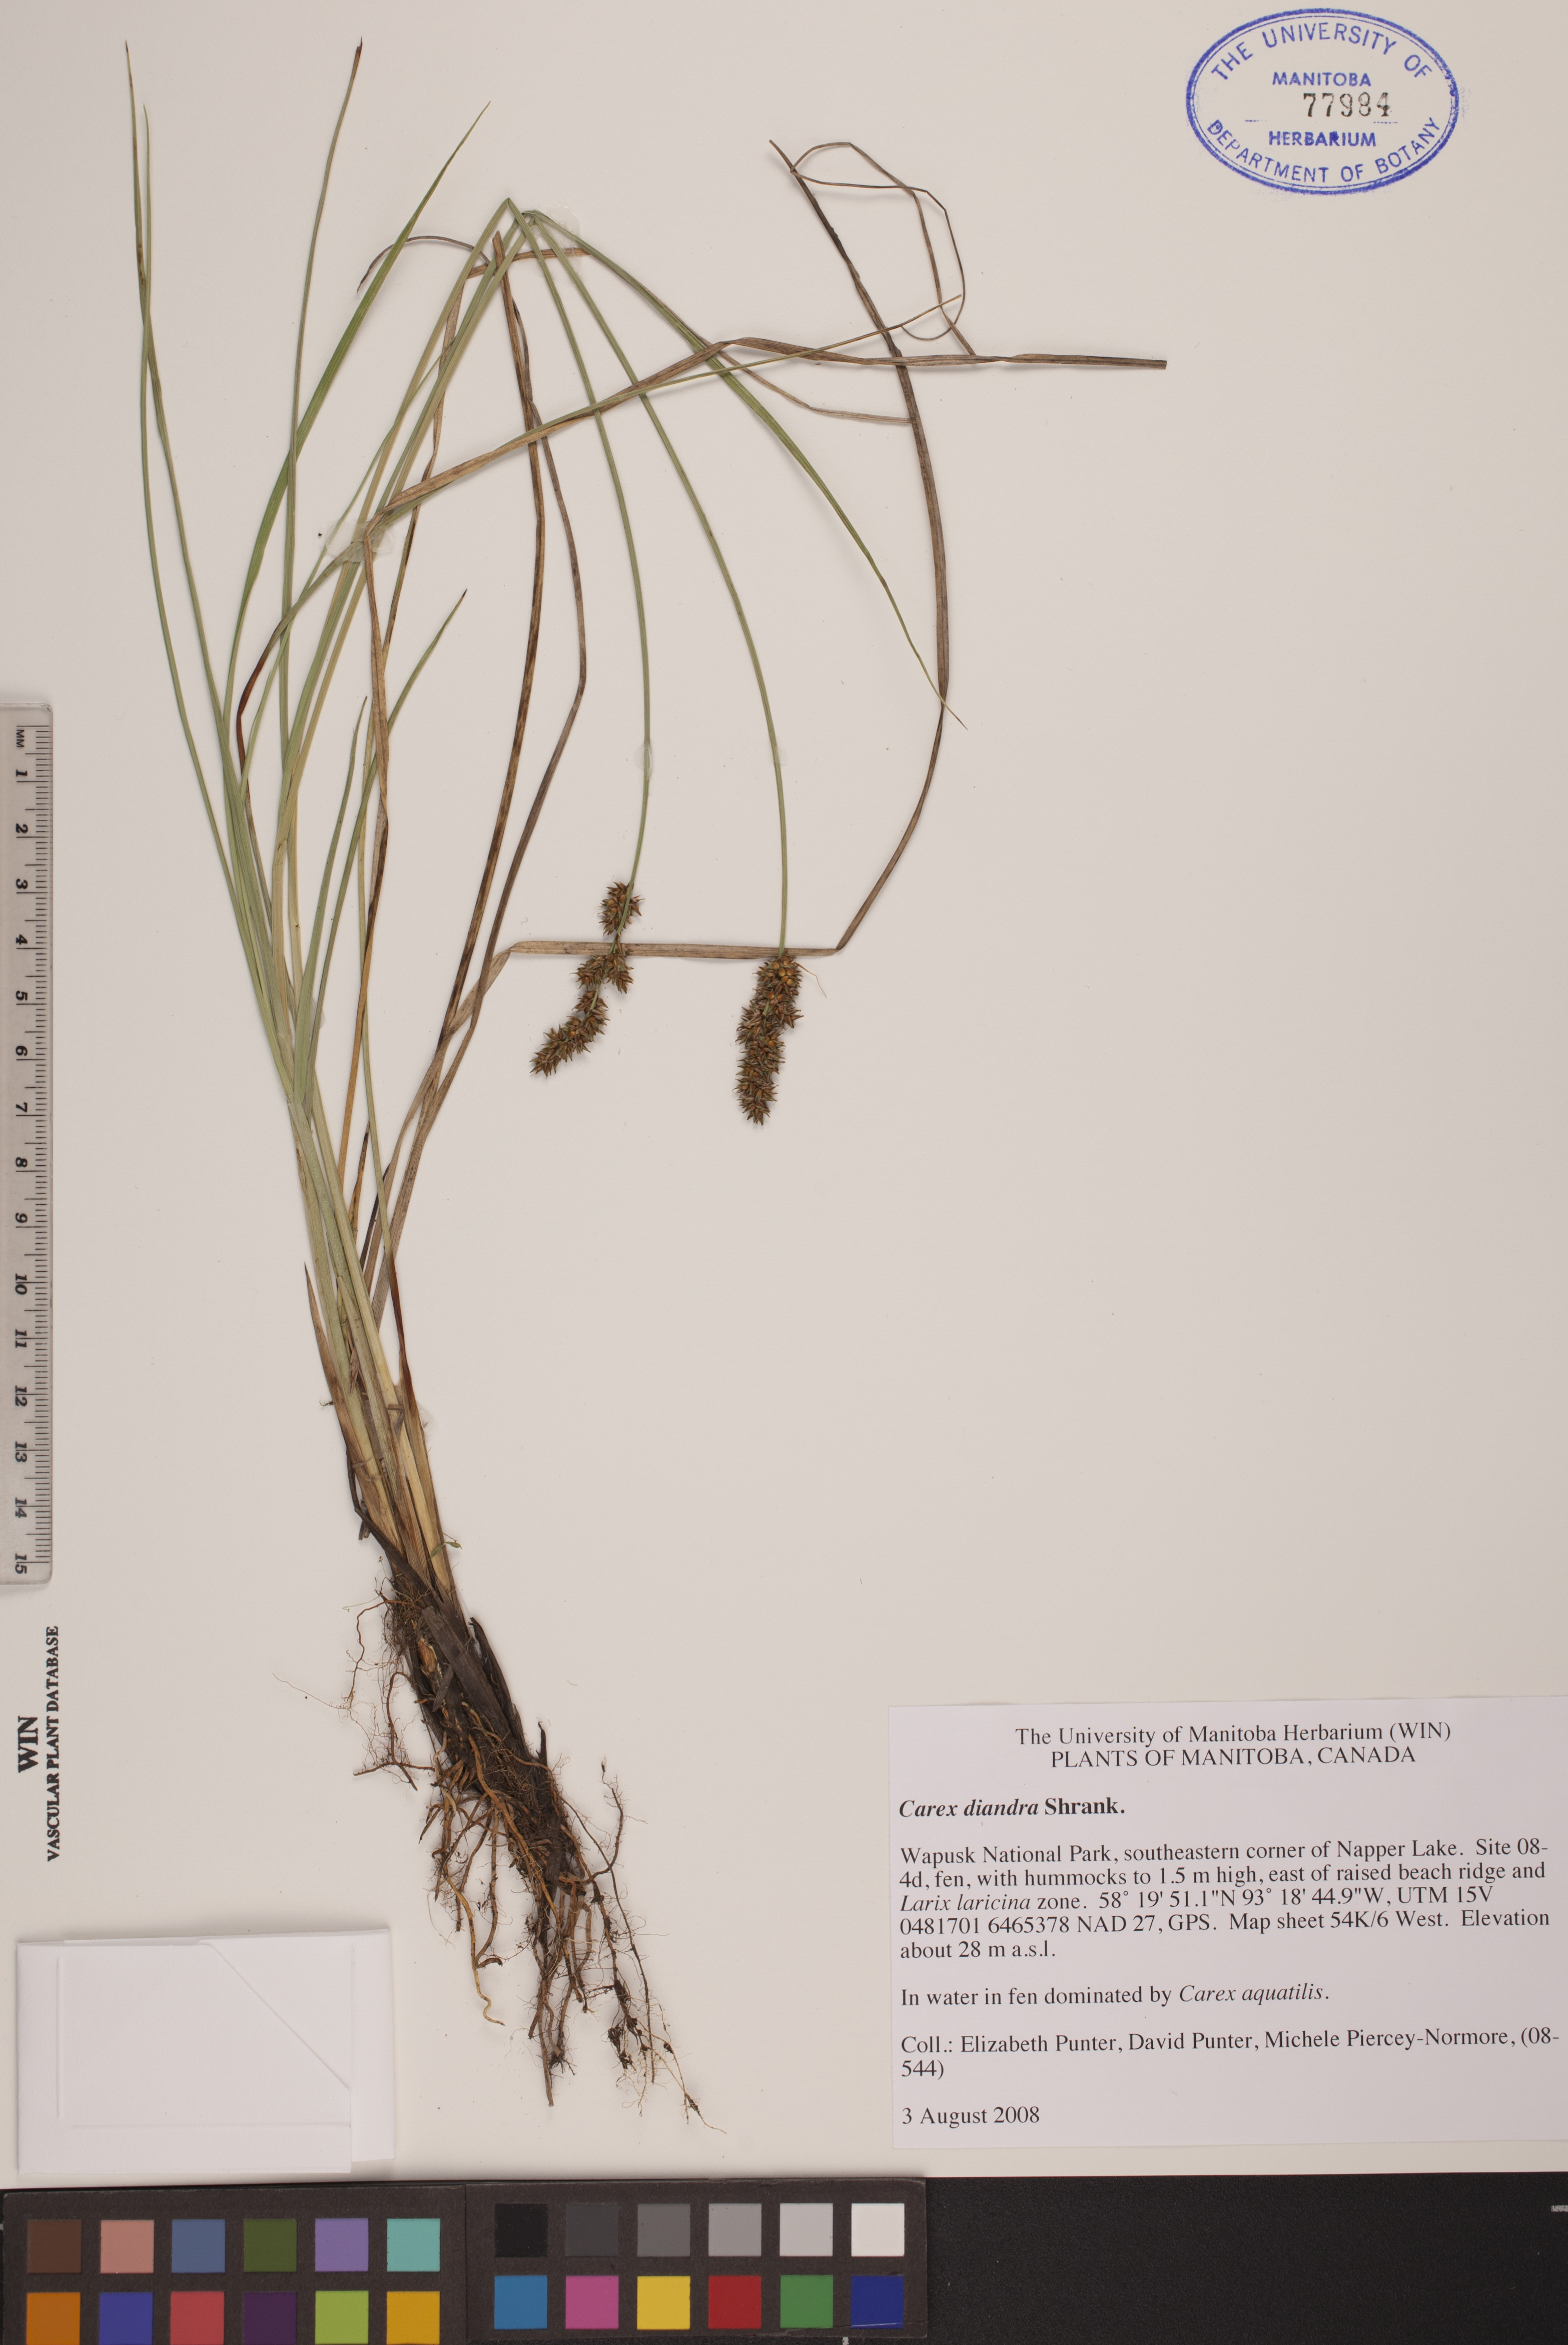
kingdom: Plantae
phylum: Tracheophyta
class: Liliopsida
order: Poales
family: Cyperaceae
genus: Carex
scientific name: Carex diandra
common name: Lesser tussock-sedge
